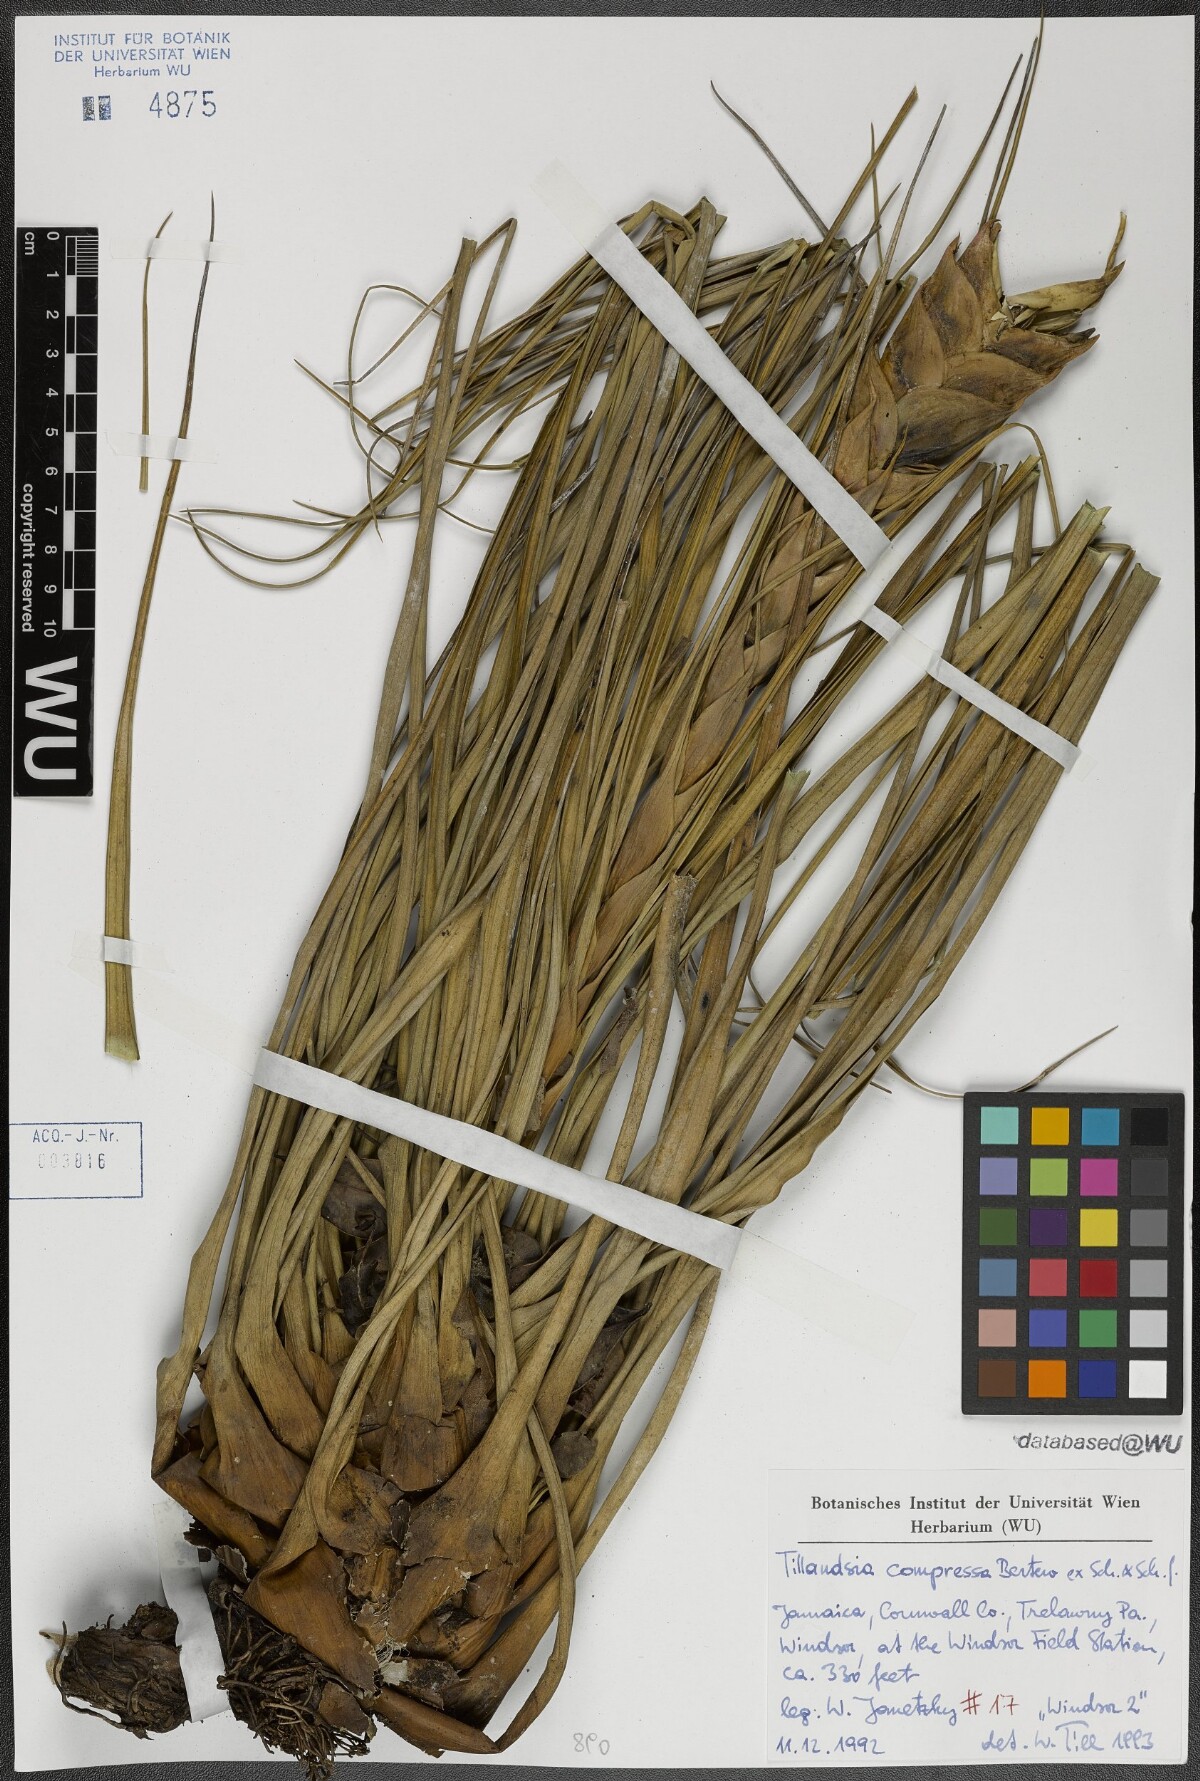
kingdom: Plantae
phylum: Tracheophyta
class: Liliopsida
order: Poales
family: Bromeliaceae
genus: Tillandsia
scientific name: Tillandsia compressa
